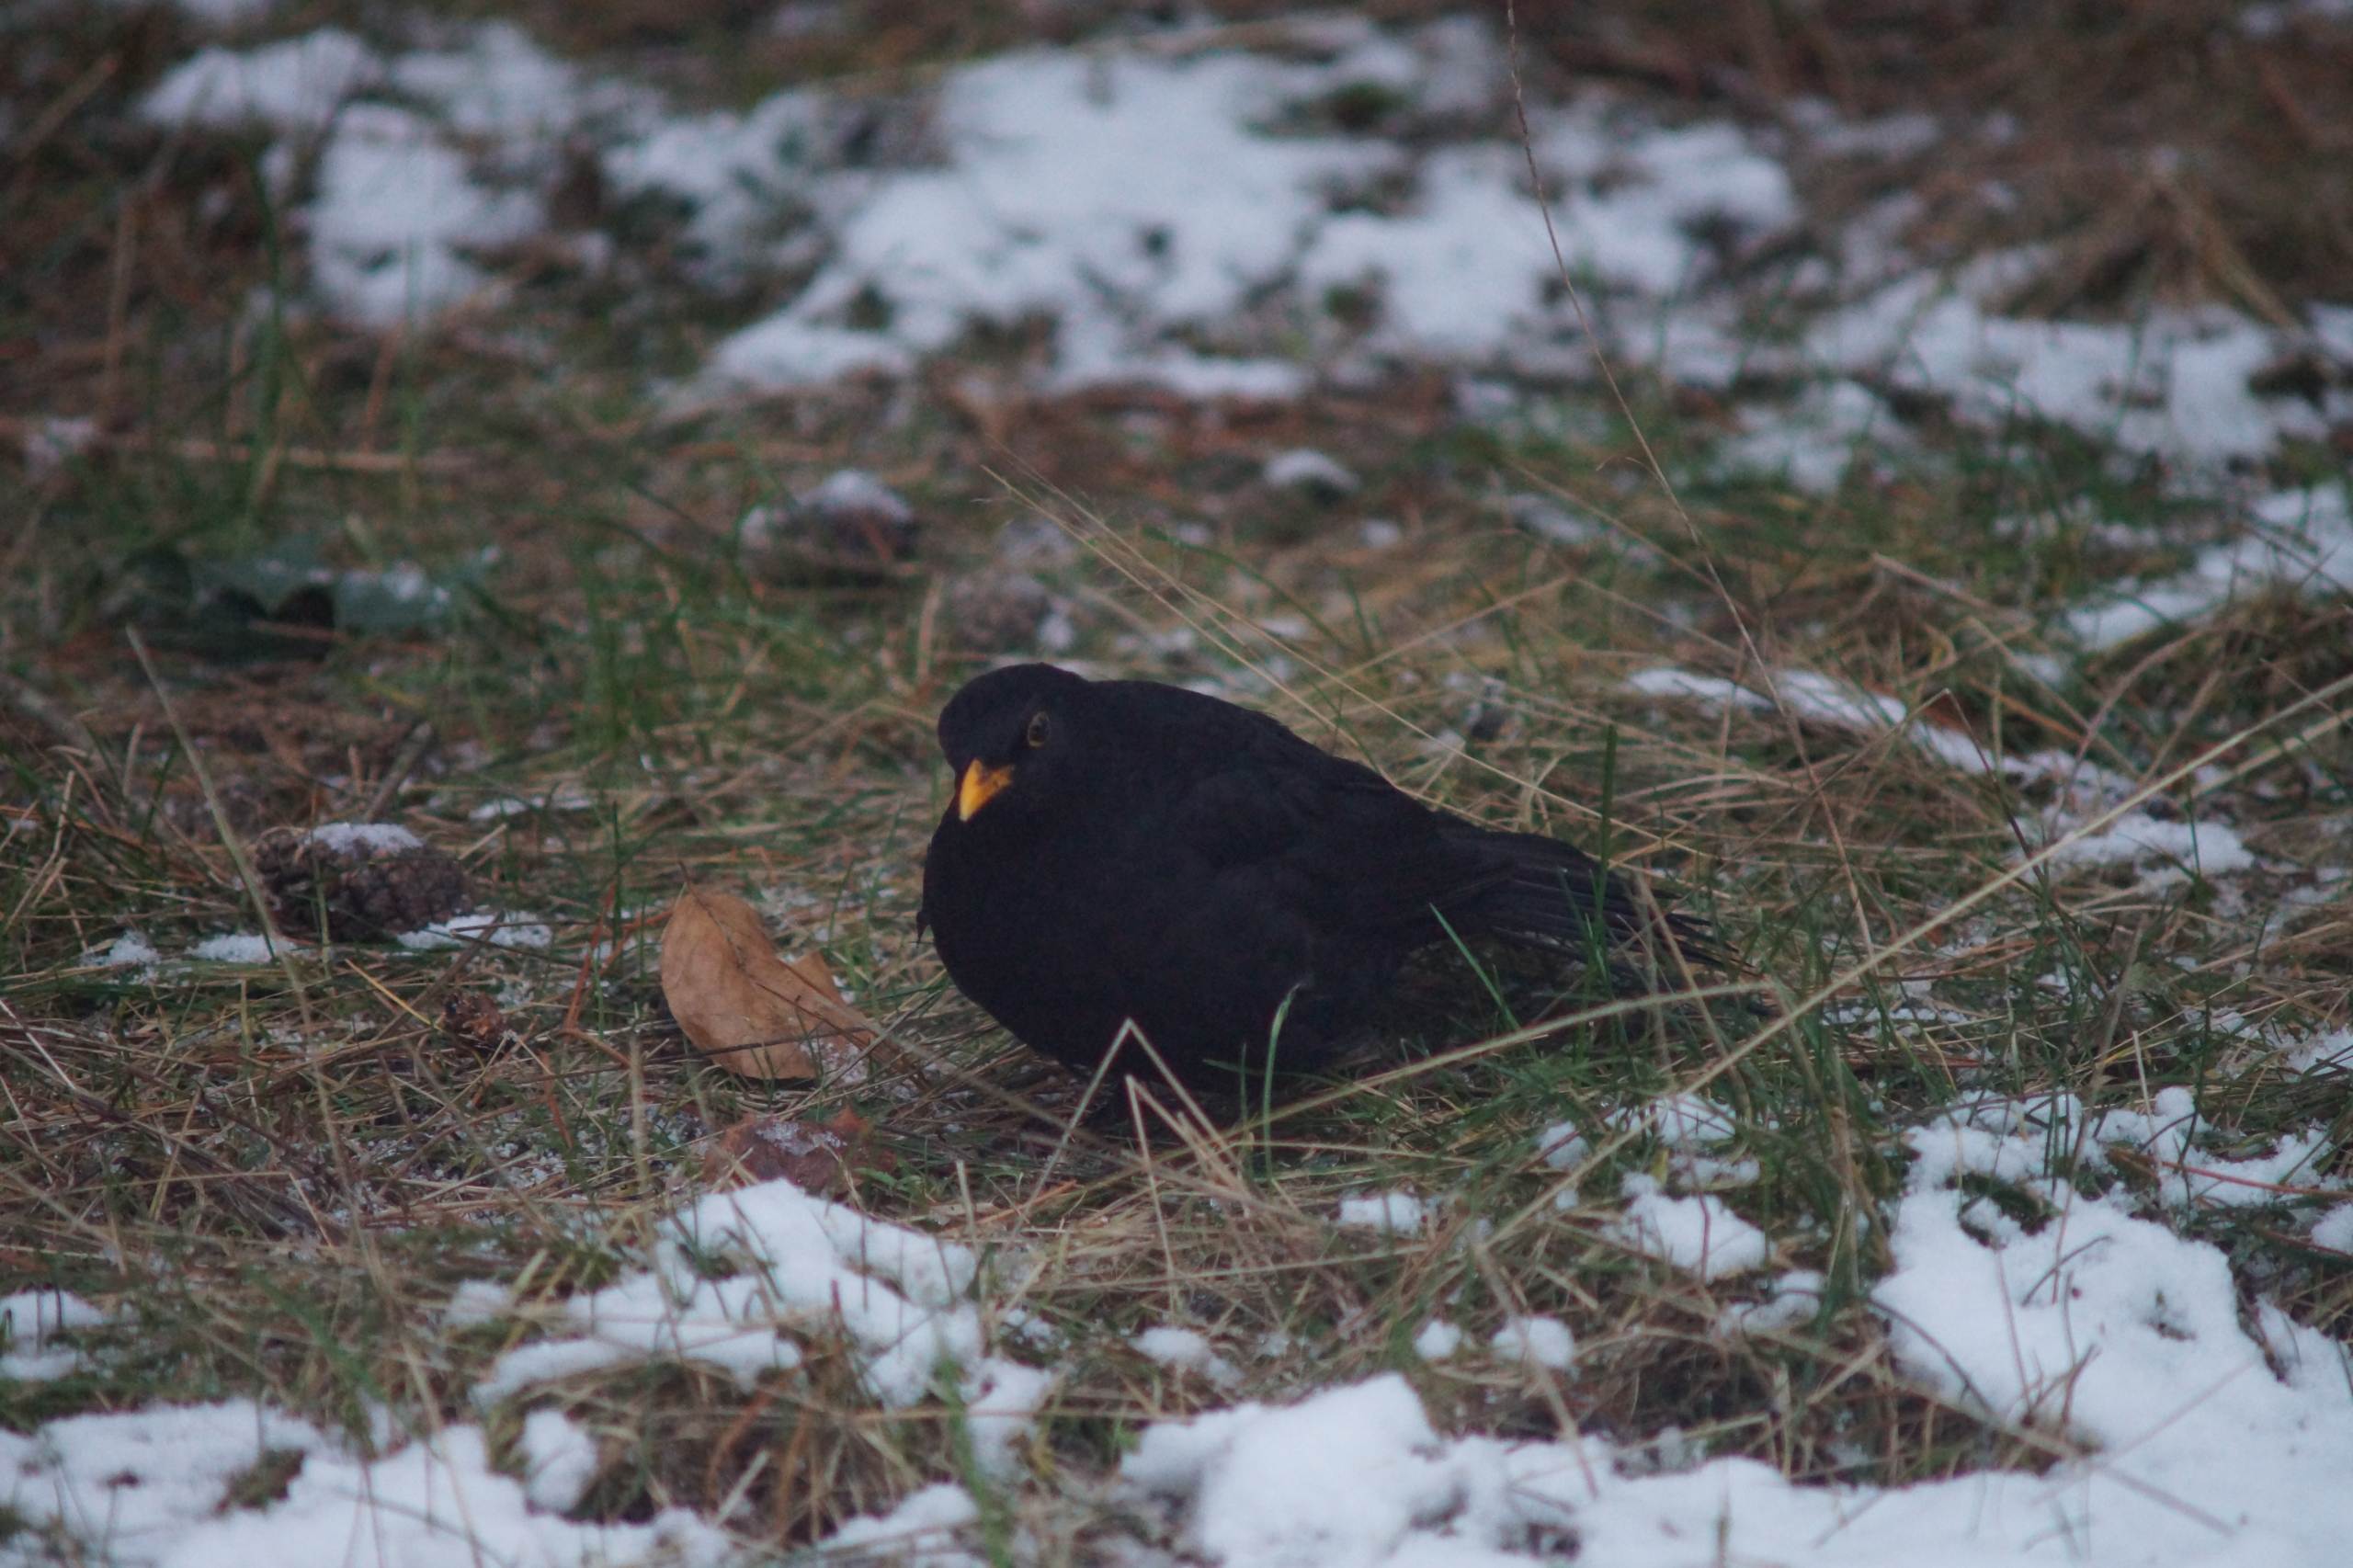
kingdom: Animalia
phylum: Chordata
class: Aves
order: Passeriformes
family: Turdidae
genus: Turdus
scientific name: Turdus merula
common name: Solsort
